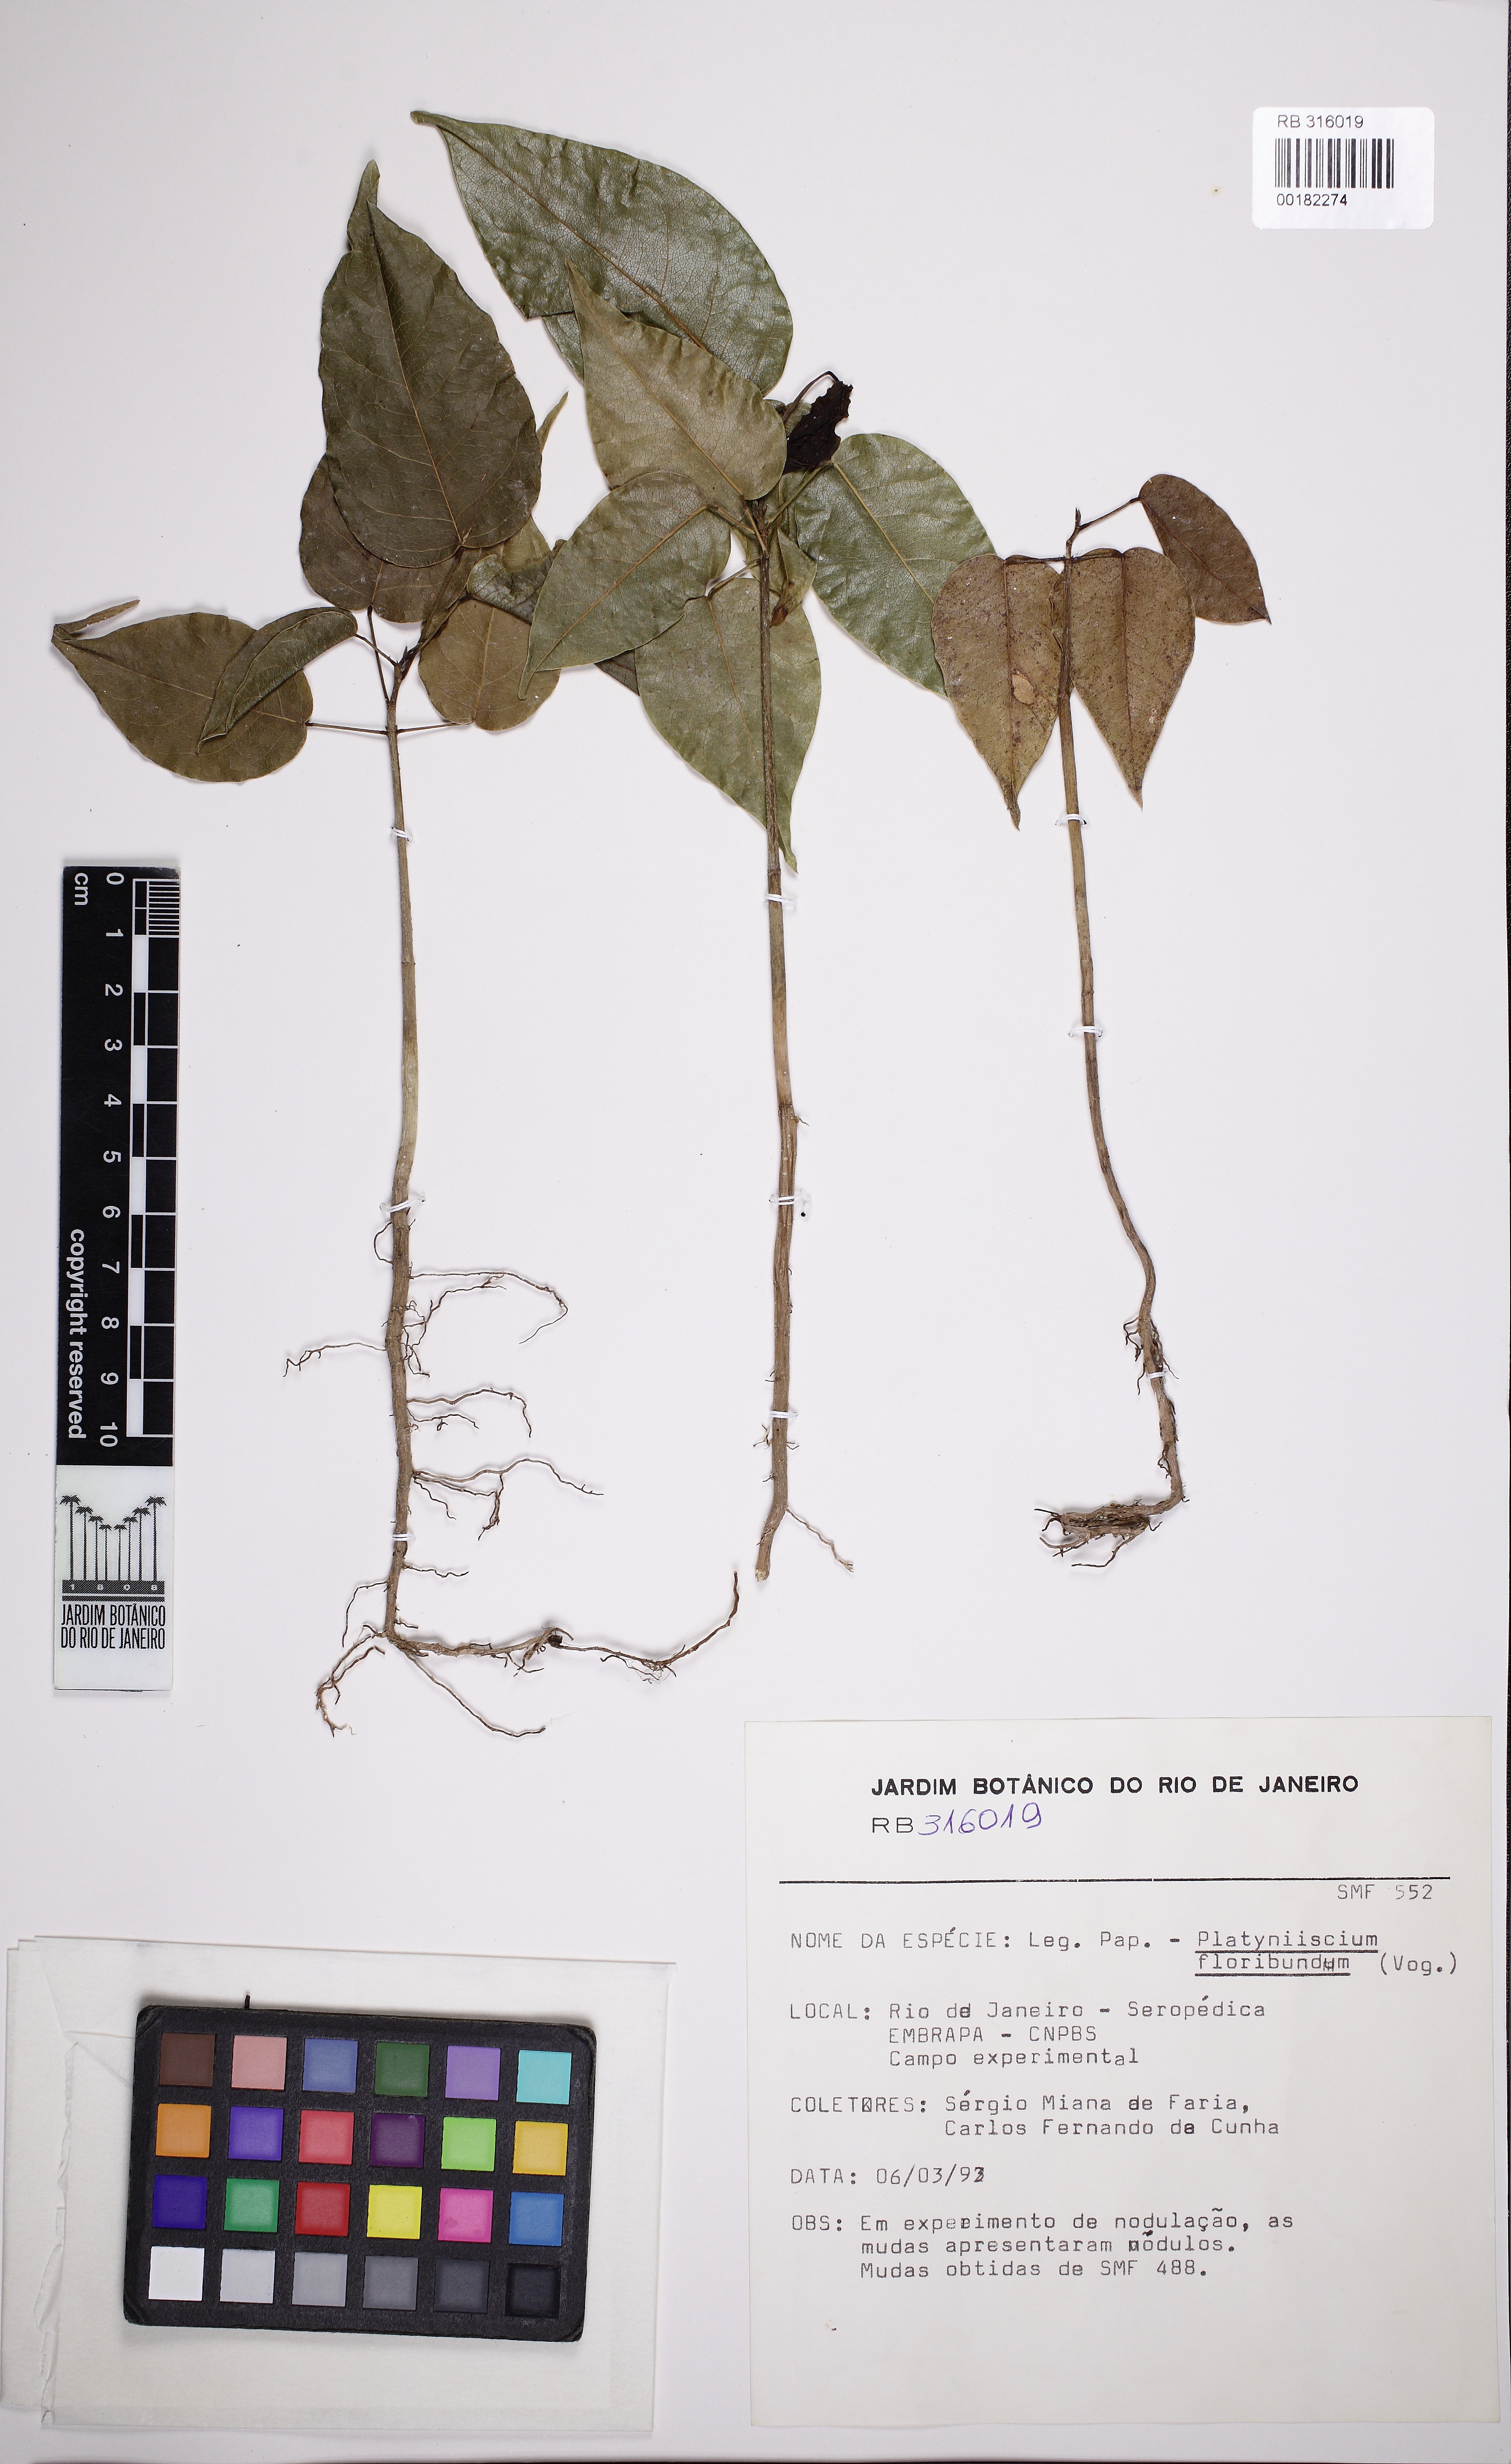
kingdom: Plantae
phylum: Tracheophyta
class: Magnoliopsida
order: Fabales
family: Fabaceae
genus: Platymiscium
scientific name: Platymiscium floribundum
